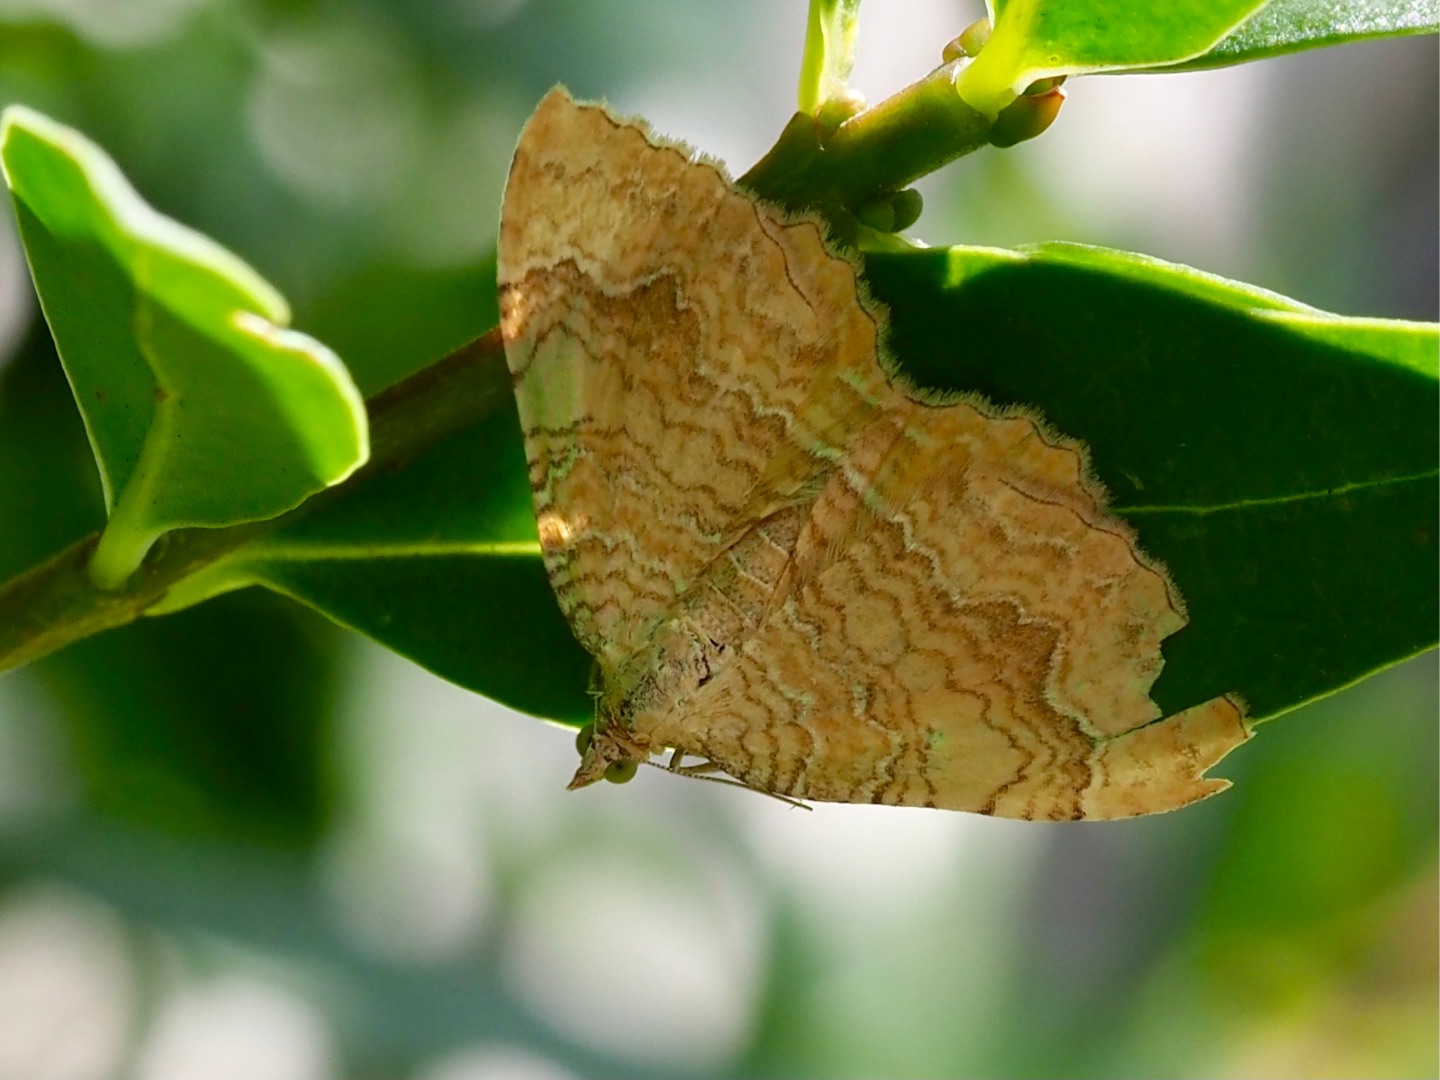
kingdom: Animalia
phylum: Arthropoda
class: Insecta
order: Lepidoptera
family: Geometridae
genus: Camptogramma
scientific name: Camptogramma bilineata
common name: Okkergul bladmåler
